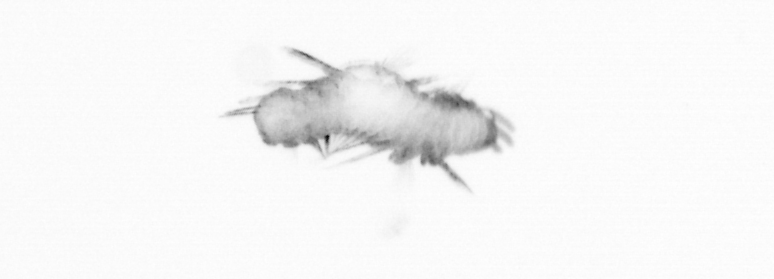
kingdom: Animalia
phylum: Annelida
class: Polychaeta
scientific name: Polychaeta
